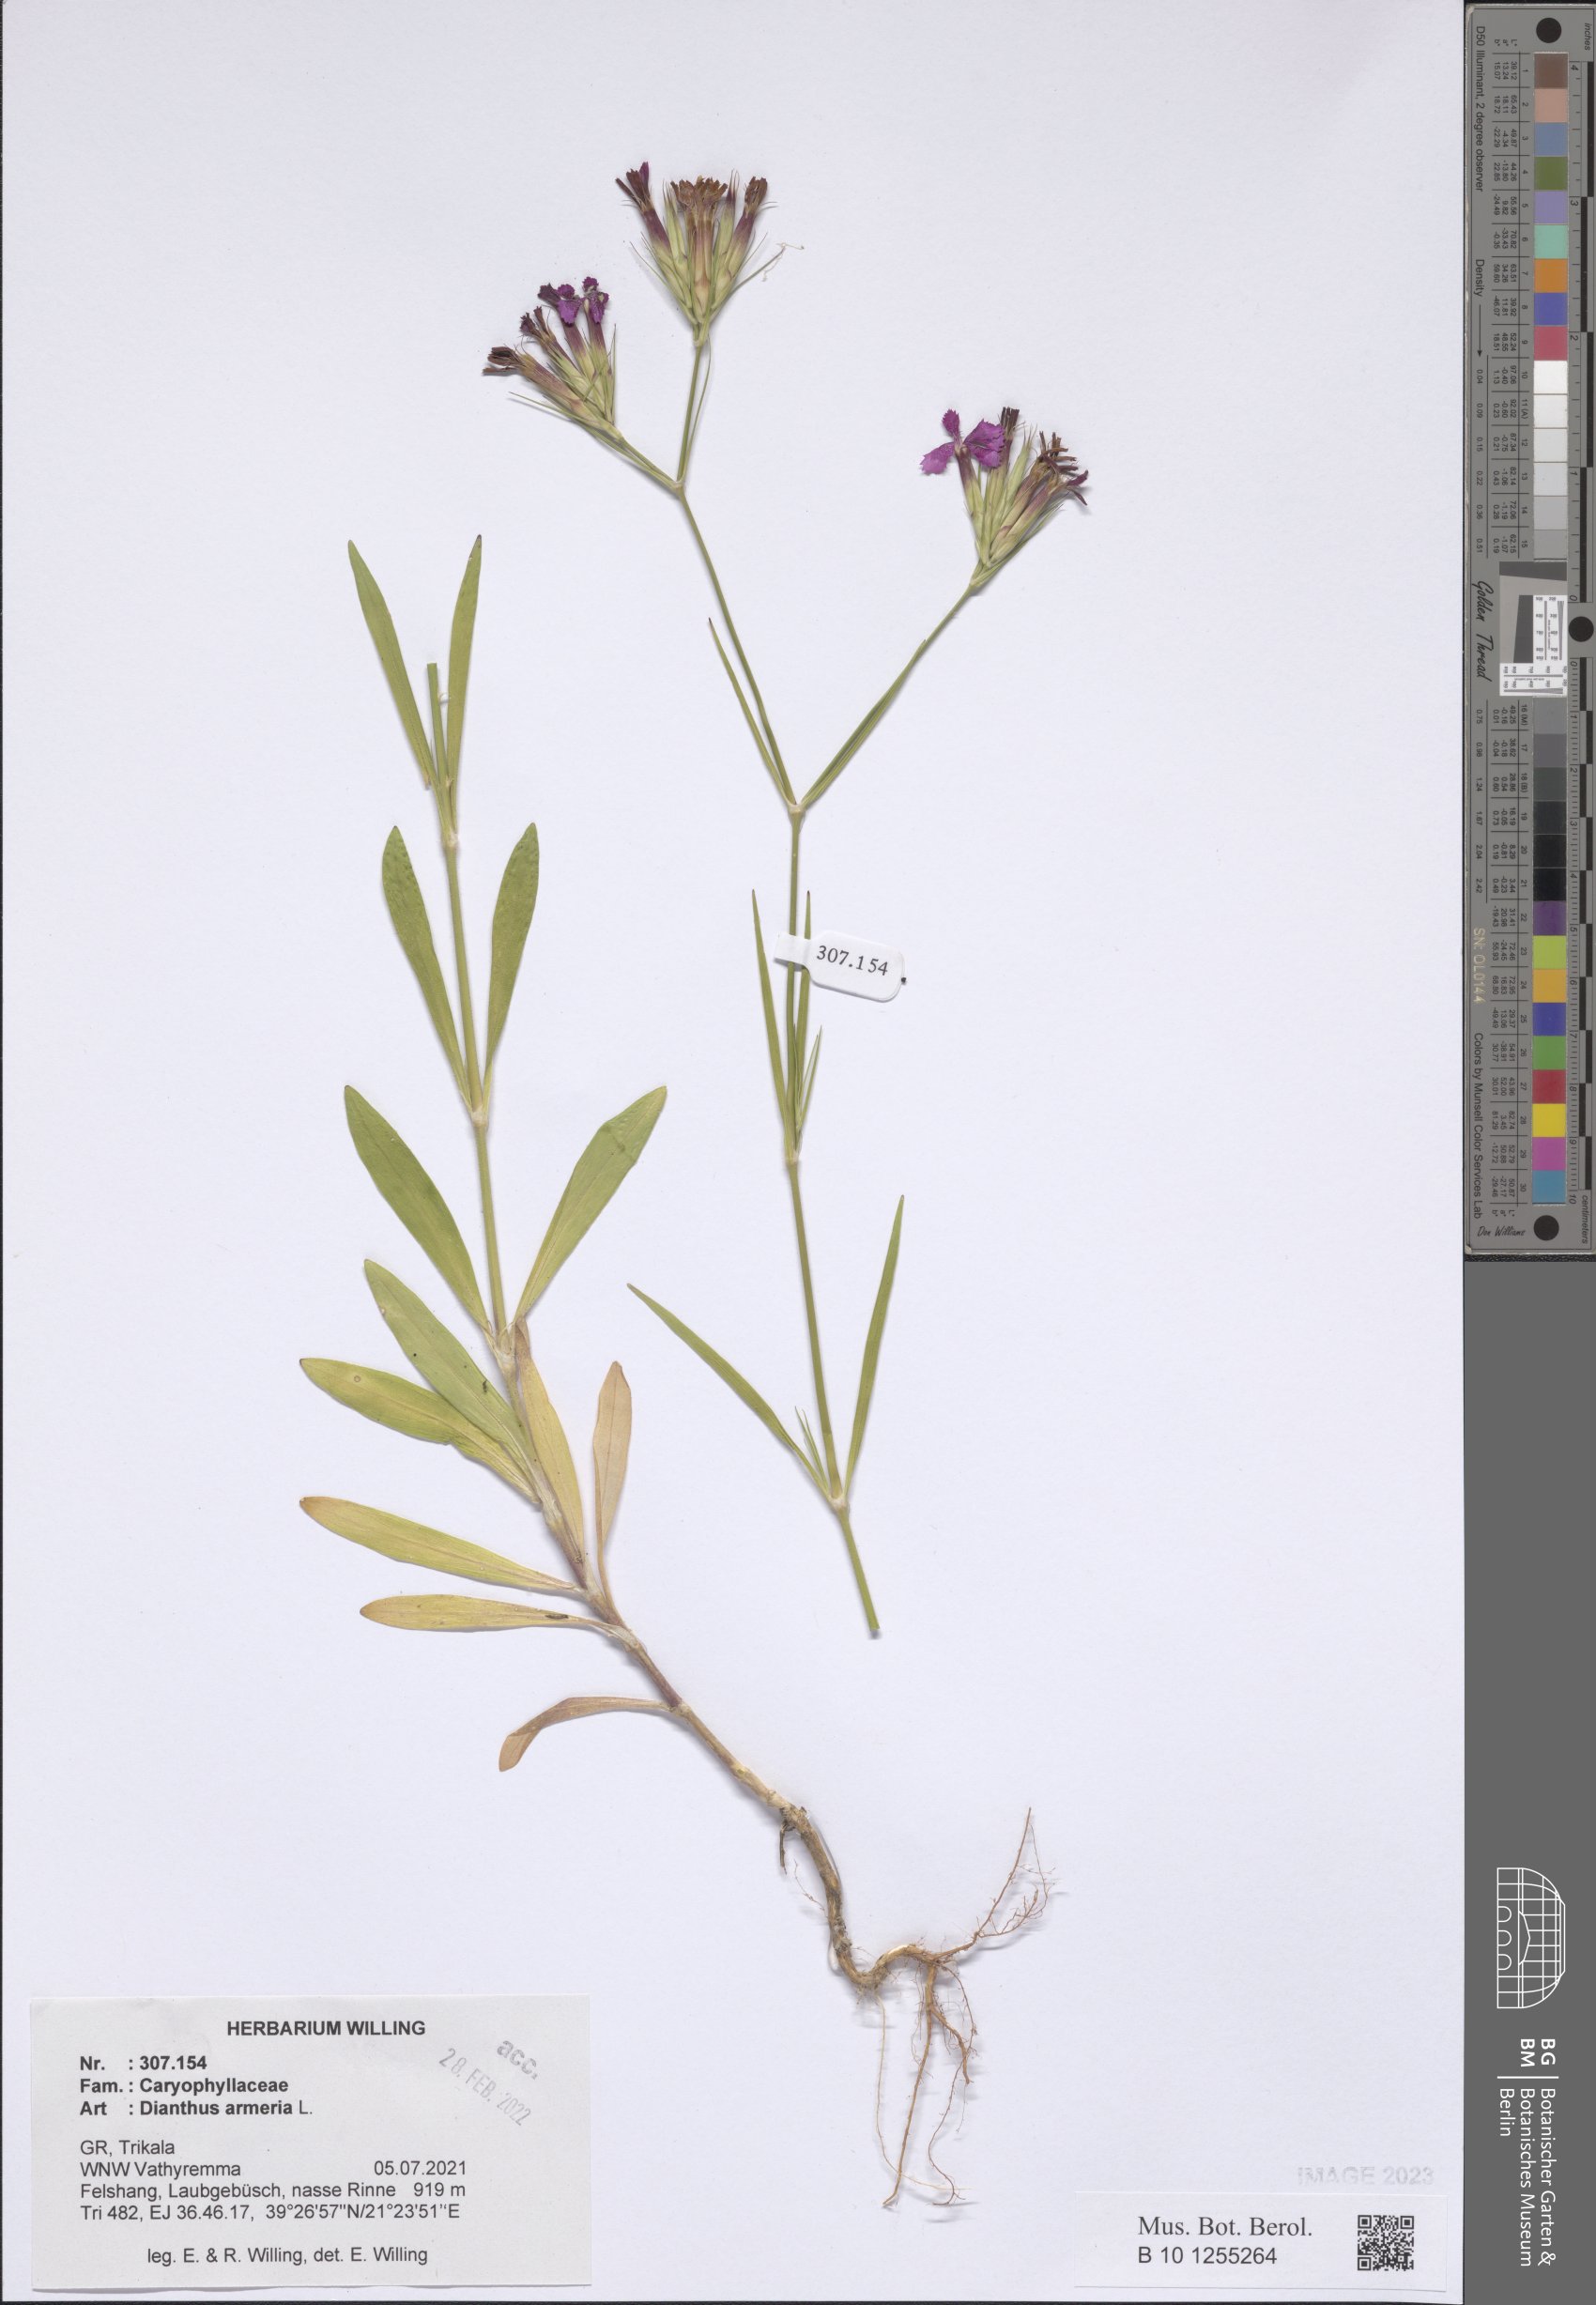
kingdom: Plantae
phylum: Tracheophyta
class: Magnoliopsida
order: Caryophyllales
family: Caryophyllaceae
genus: Dianthus
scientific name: Dianthus armeria
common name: Deptford pink
